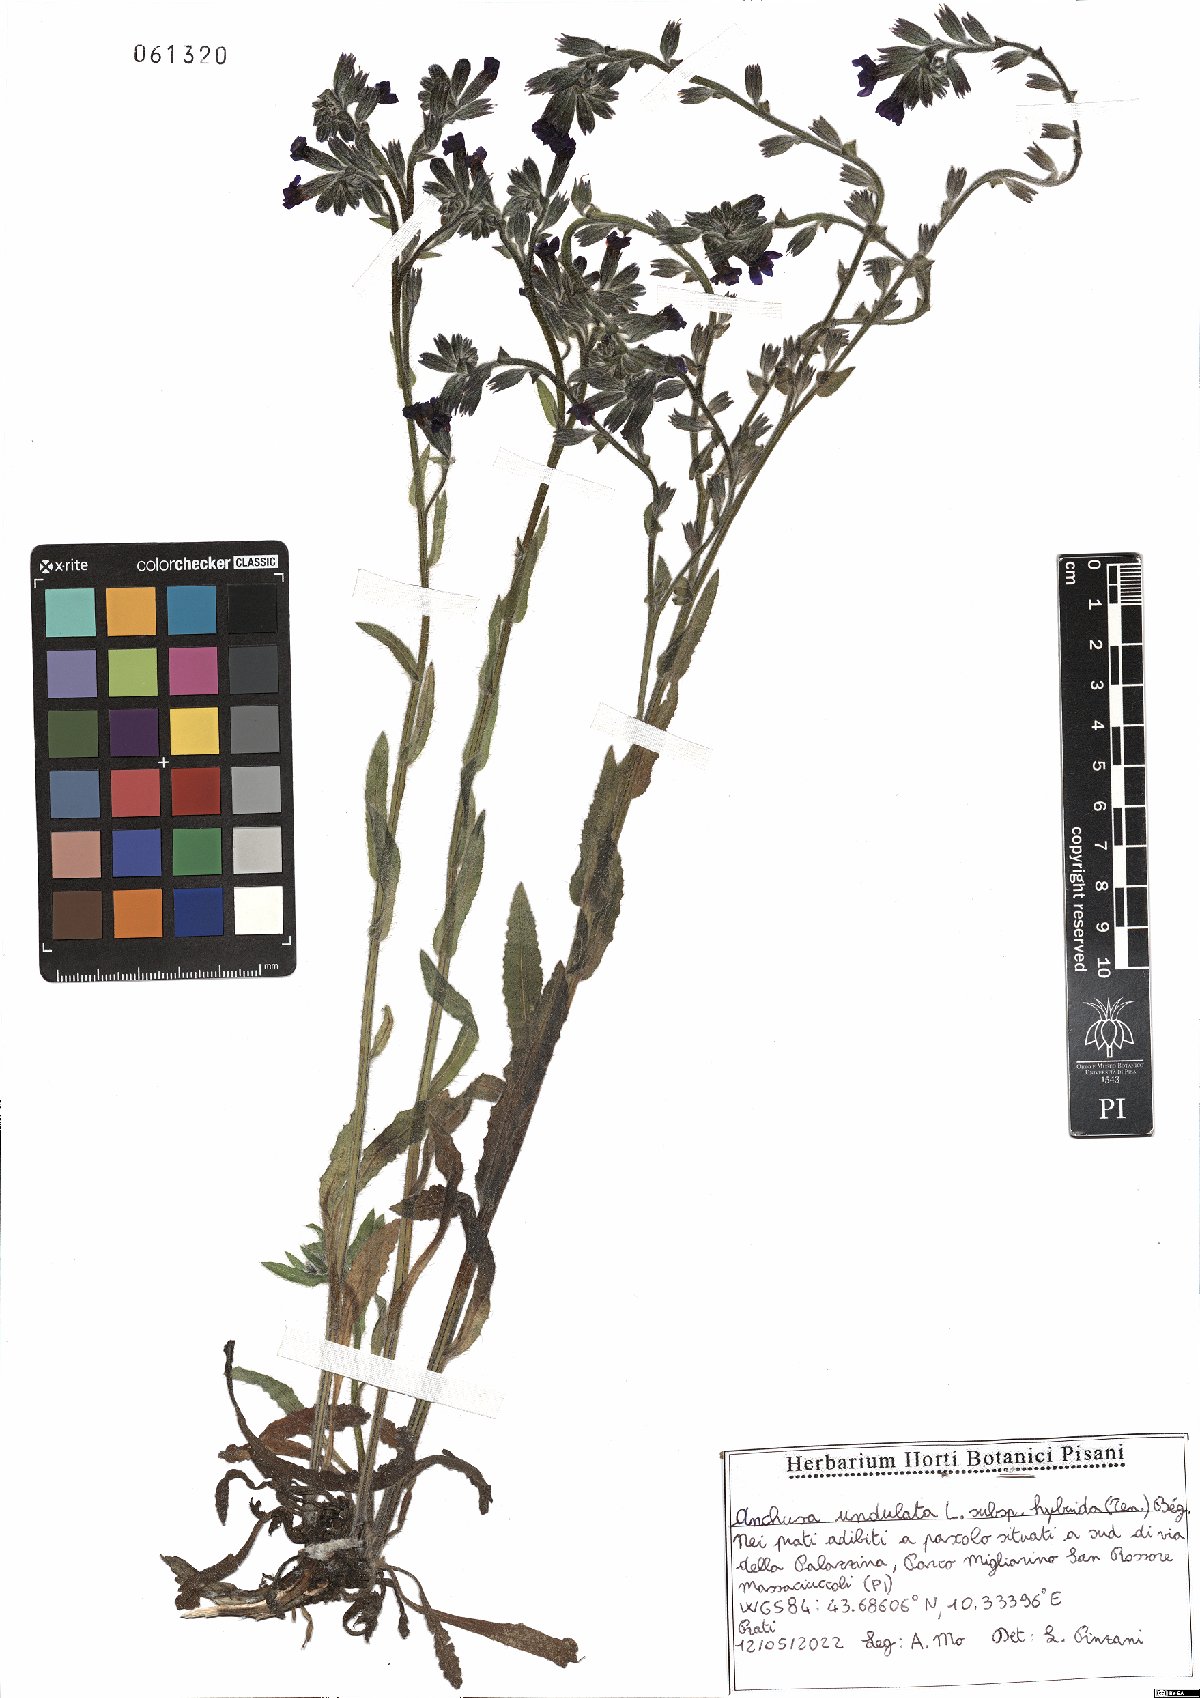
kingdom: Plantae
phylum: Tracheophyta
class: Magnoliopsida
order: Boraginales
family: Boraginaceae
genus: Anchusa
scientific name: Anchusa undulata
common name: Undulate alkanet
